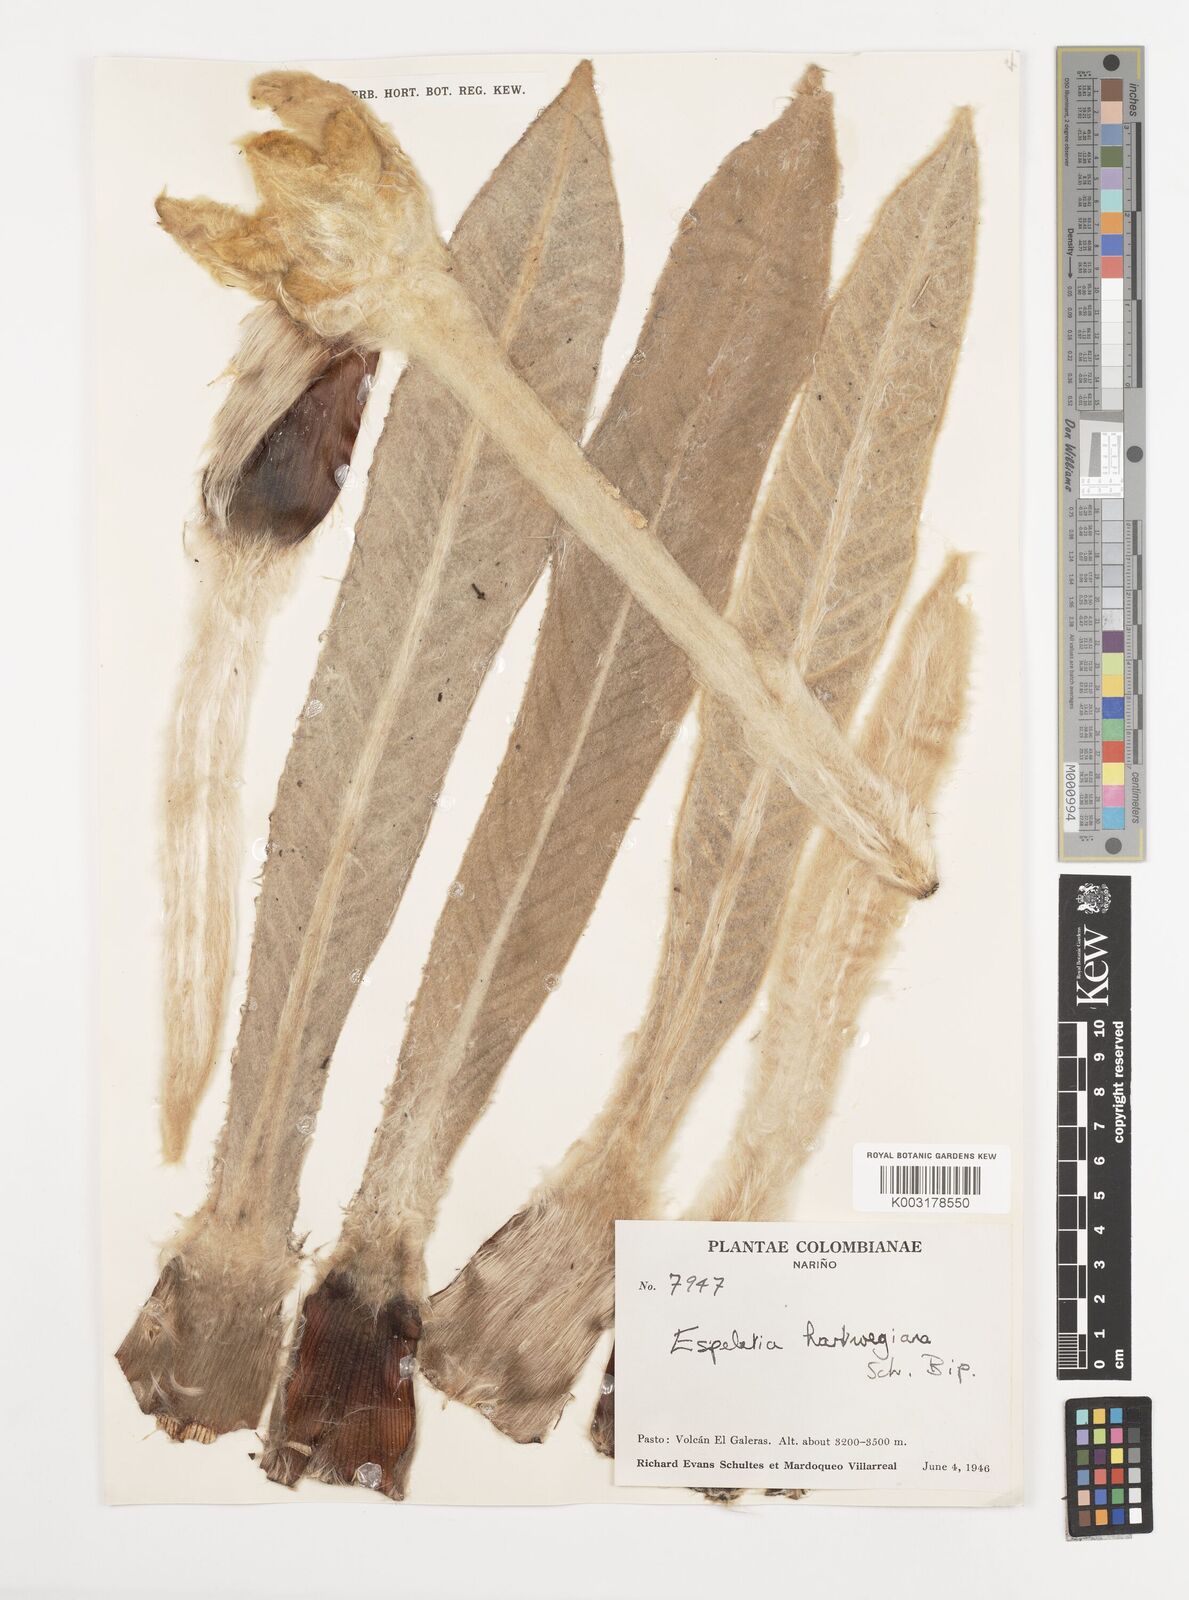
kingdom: Plantae
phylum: Tracheophyta
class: Magnoliopsida
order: Asterales
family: Asteraceae
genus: Espeletia
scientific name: Espeletia hartwegiana
